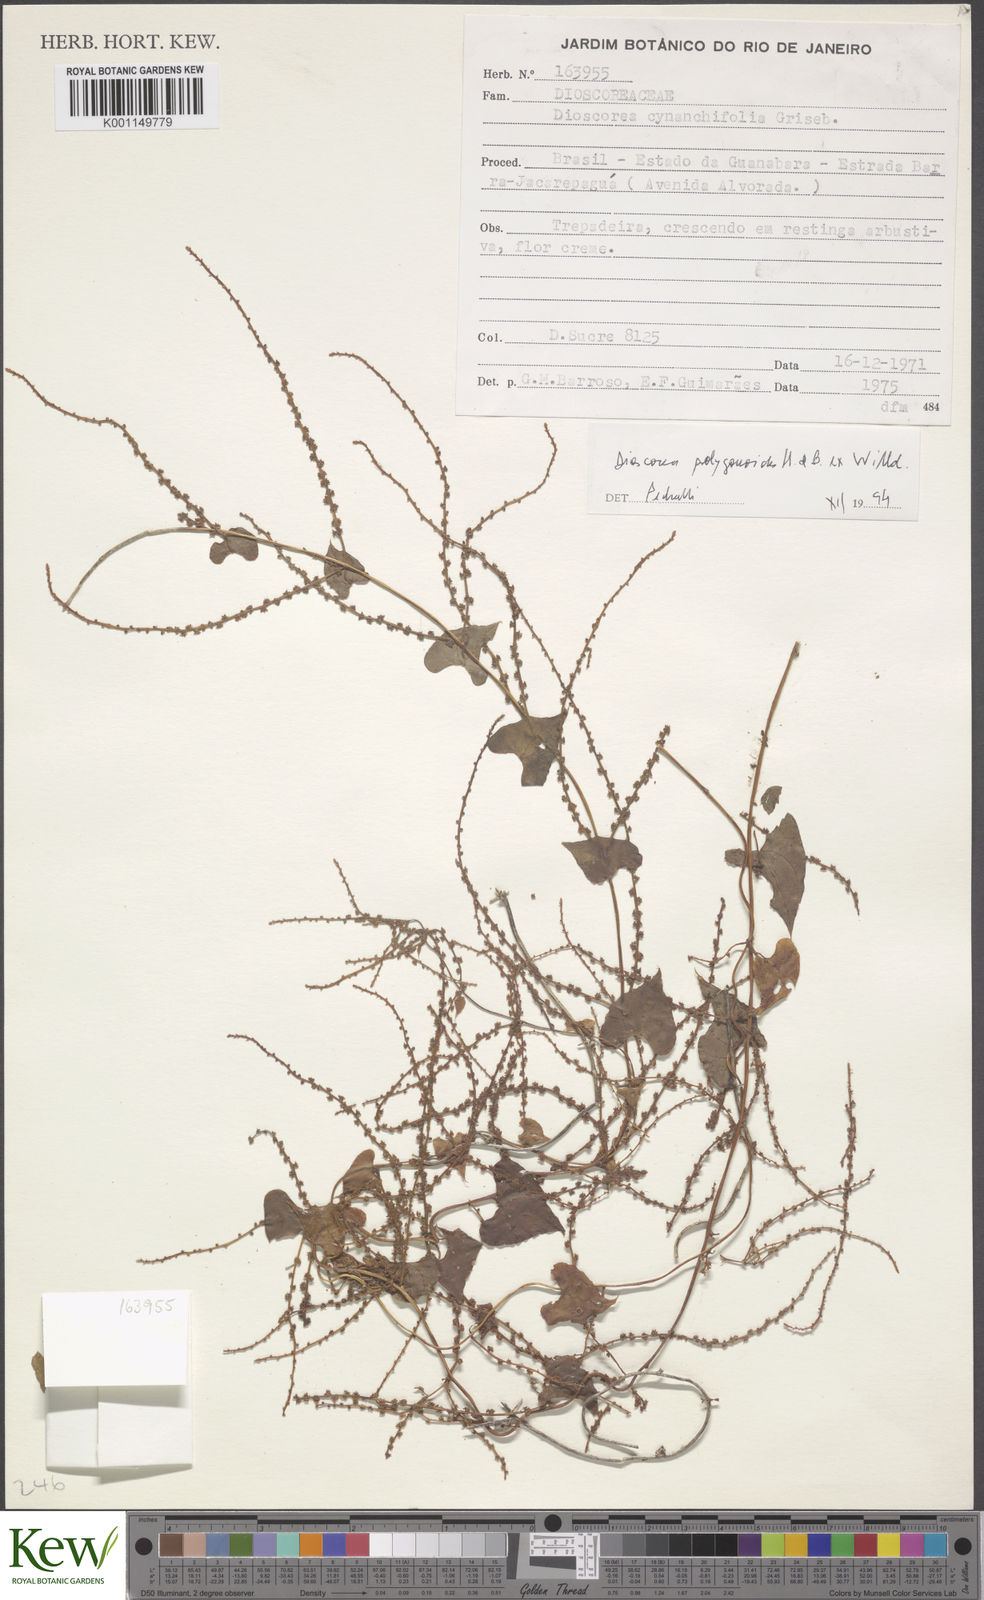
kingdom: Plantae
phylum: Tracheophyta
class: Liliopsida
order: Dioscoreales
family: Dioscoreaceae
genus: Dioscorea
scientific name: Dioscorea marginata
